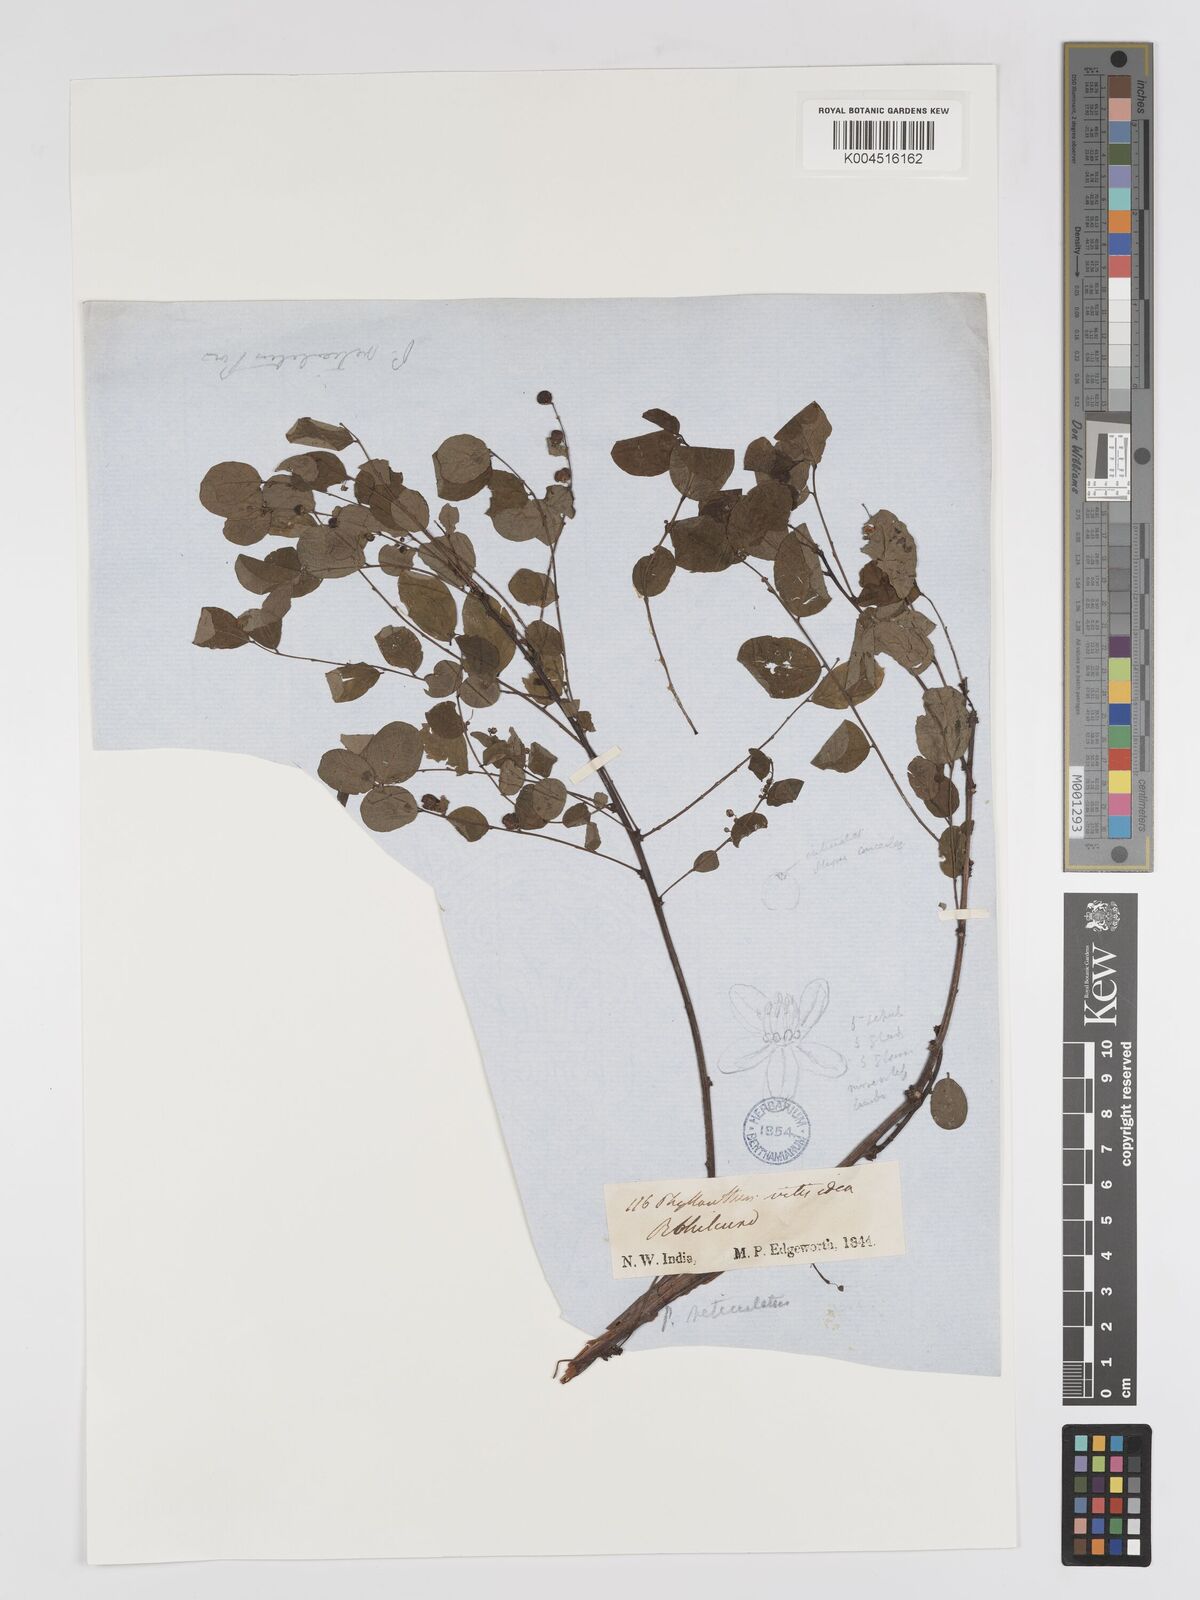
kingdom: Plantae
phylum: Tracheophyta
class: Magnoliopsida
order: Malpighiales
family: Phyllanthaceae
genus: Phyllanthus
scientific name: Phyllanthus reticulatus
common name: Potato bush
